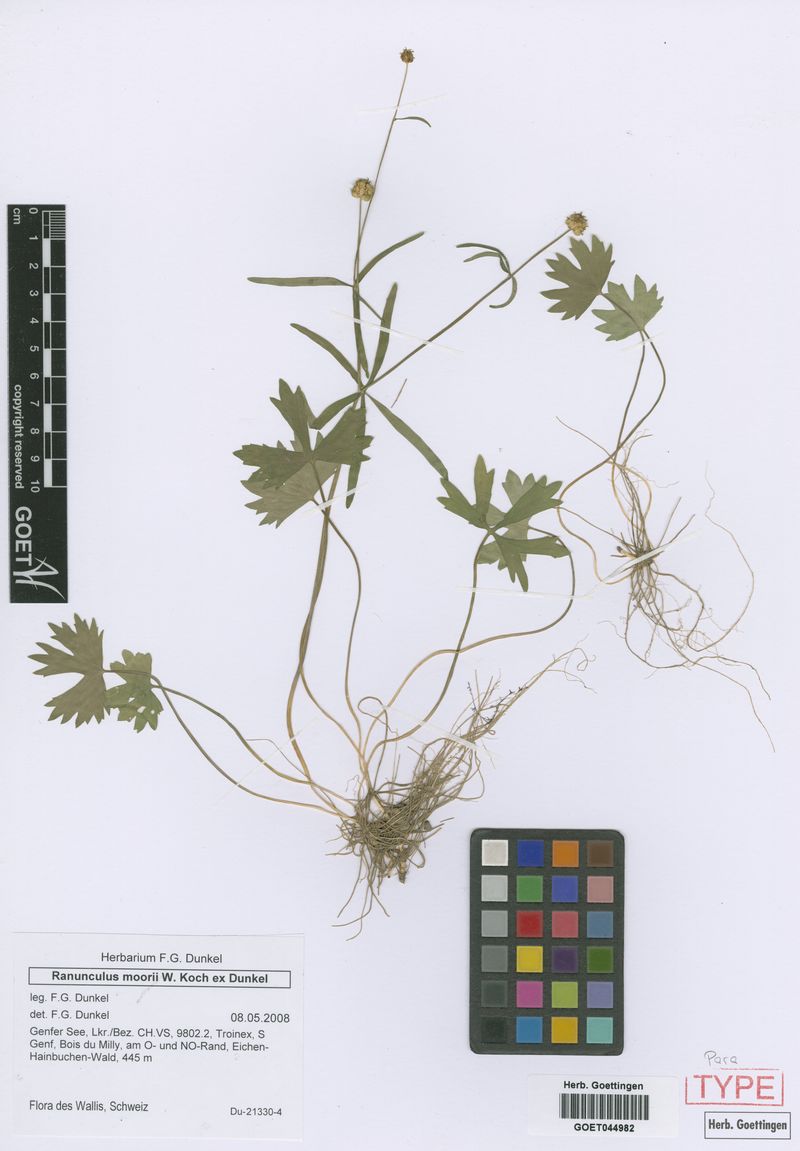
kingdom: Plantae
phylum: Tracheophyta
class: Magnoliopsida
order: Ranunculales
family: Ranunculaceae
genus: Ranunculus
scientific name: Ranunculus moorii
